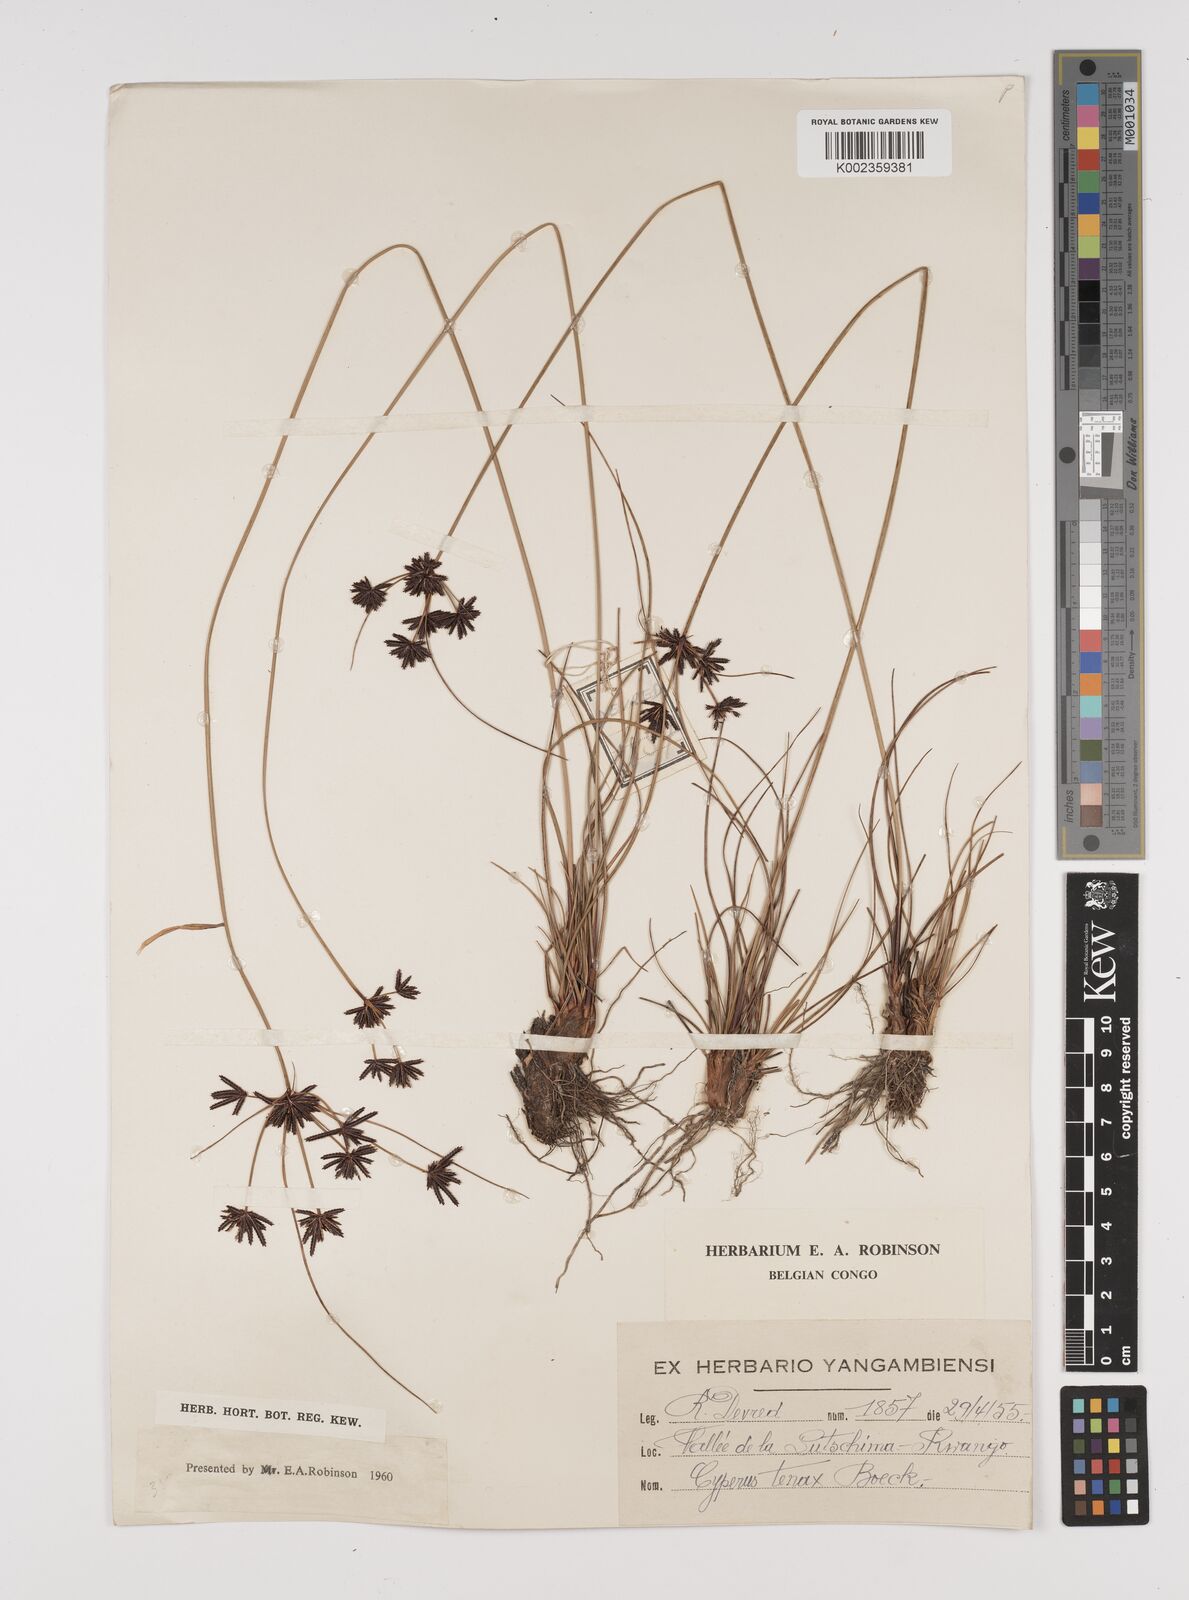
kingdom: Plantae
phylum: Tracheophyta
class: Liliopsida
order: Poales
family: Cyperaceae
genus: Cyperus
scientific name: Cyperus tenax
